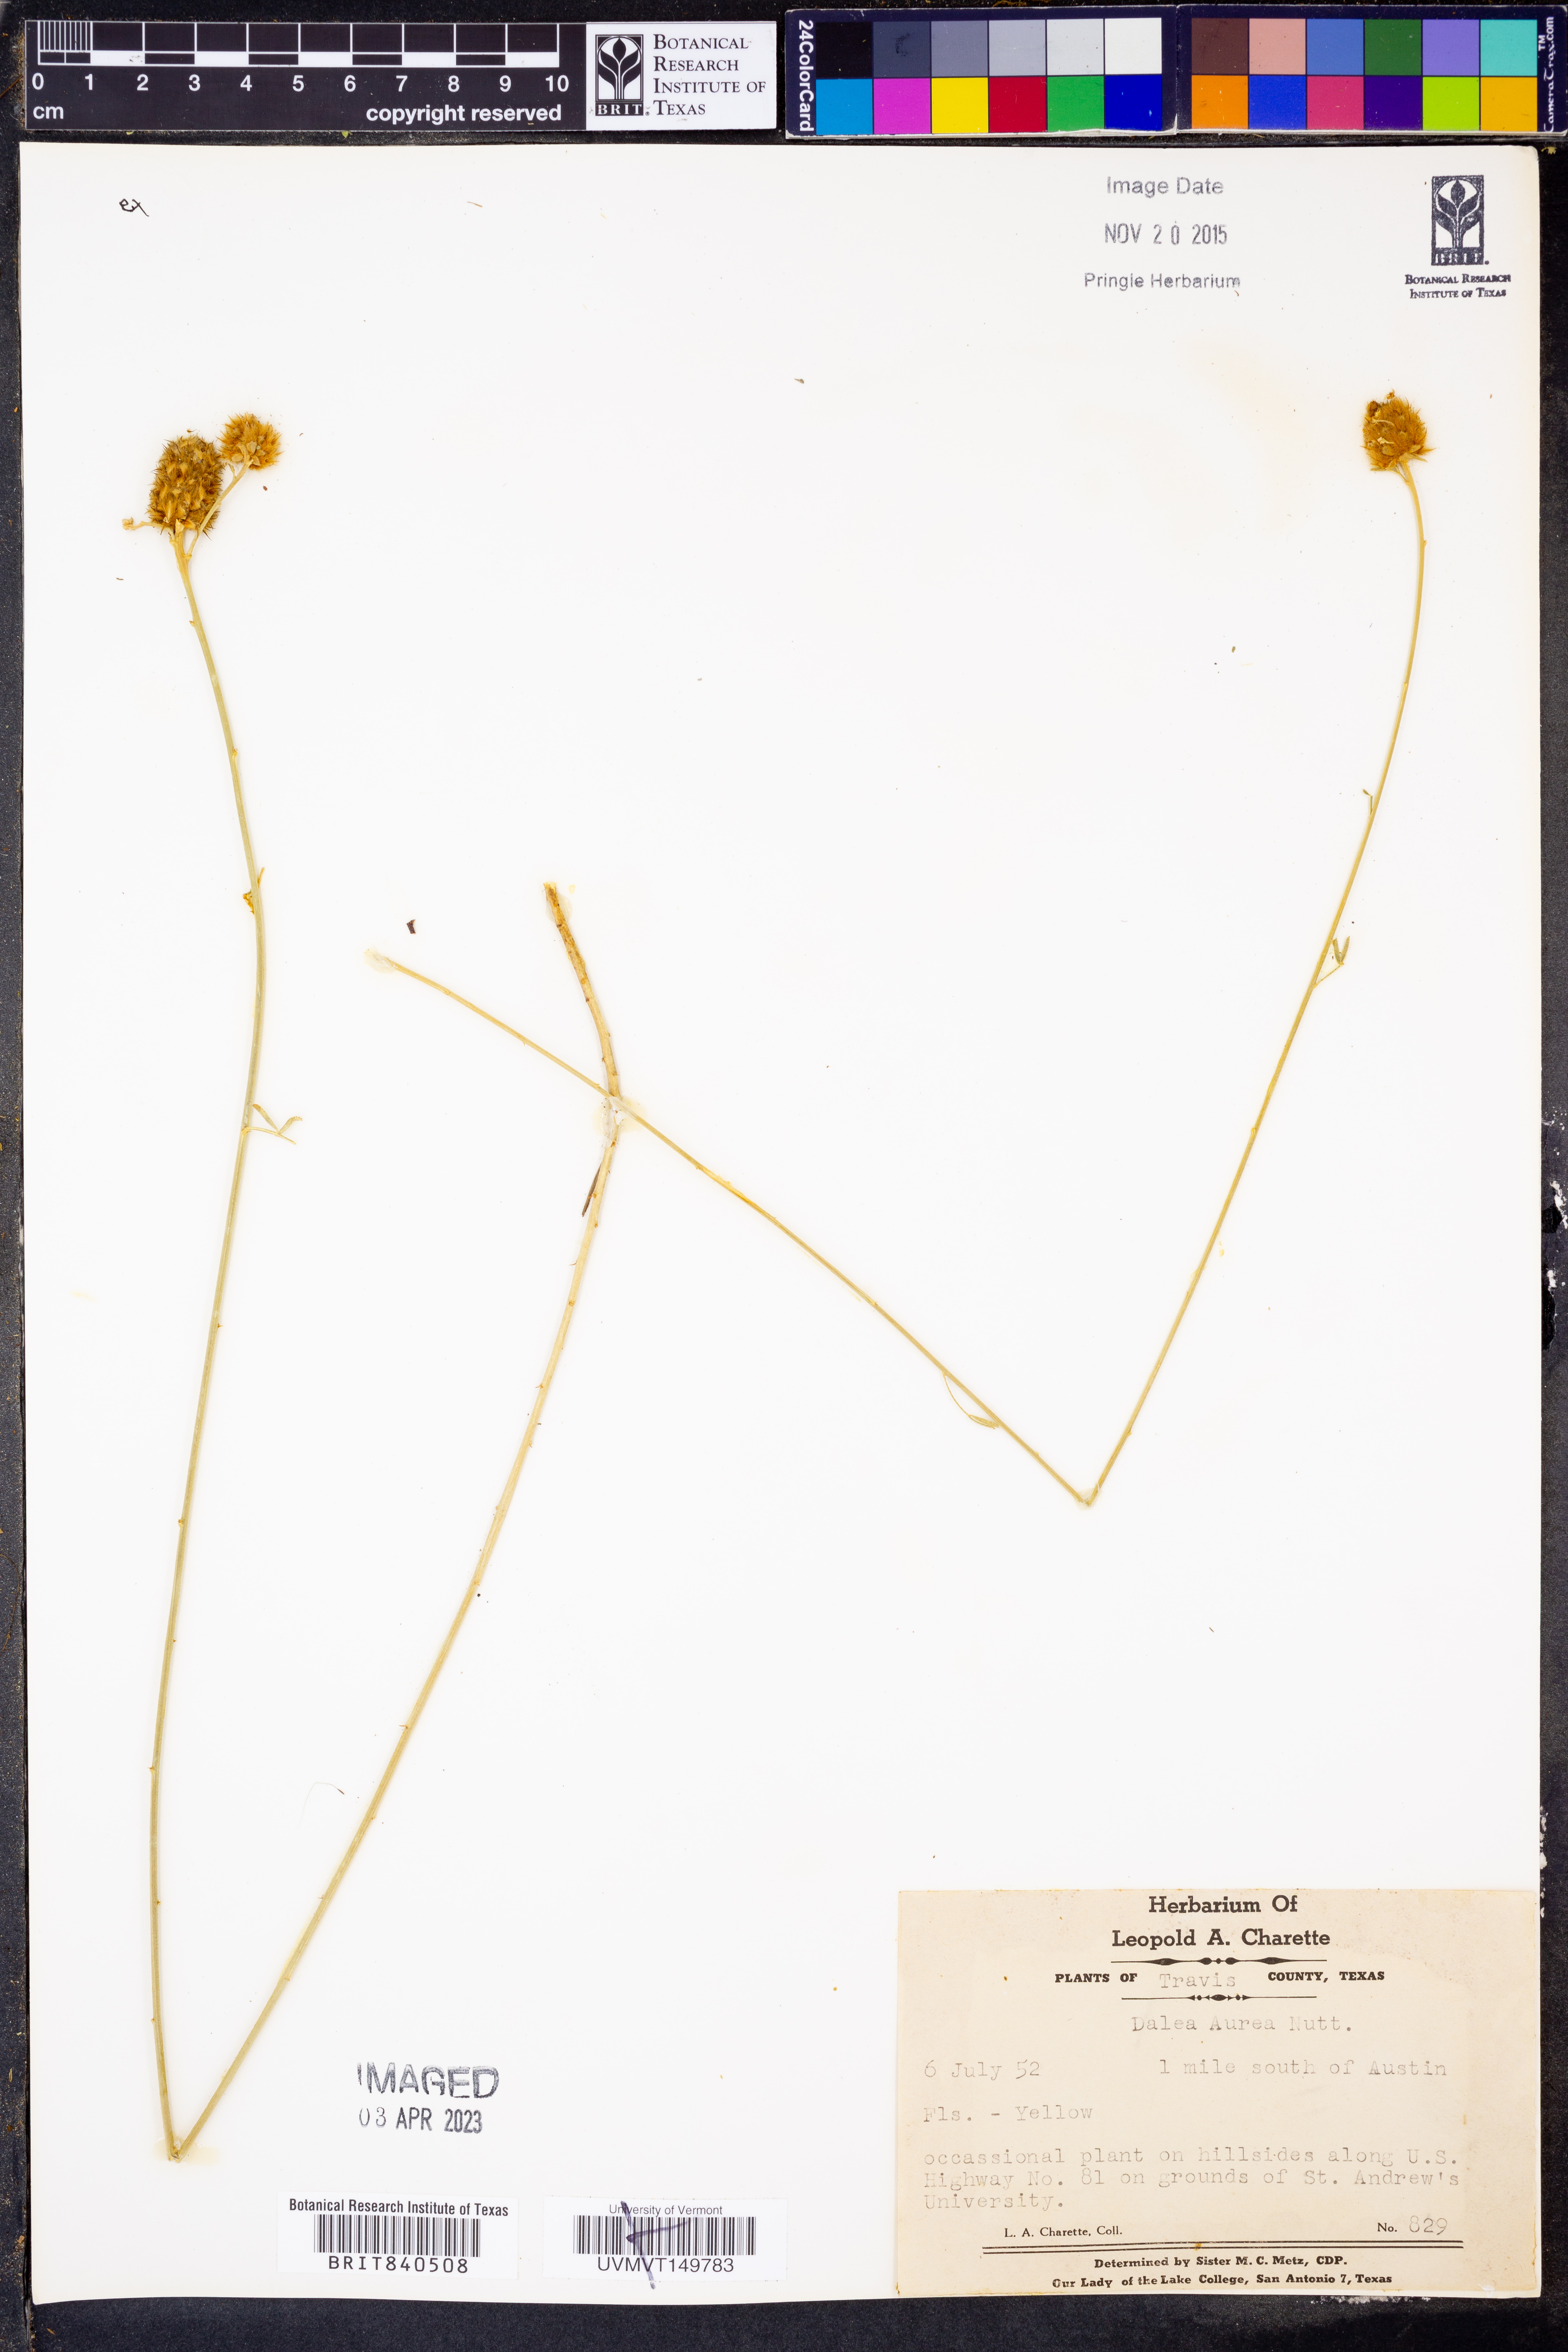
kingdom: Plantae
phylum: Tracheophyta
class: Magnoliopsida
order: Fabales
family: Fabaceae
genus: Dalea
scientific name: Dalea aurea
